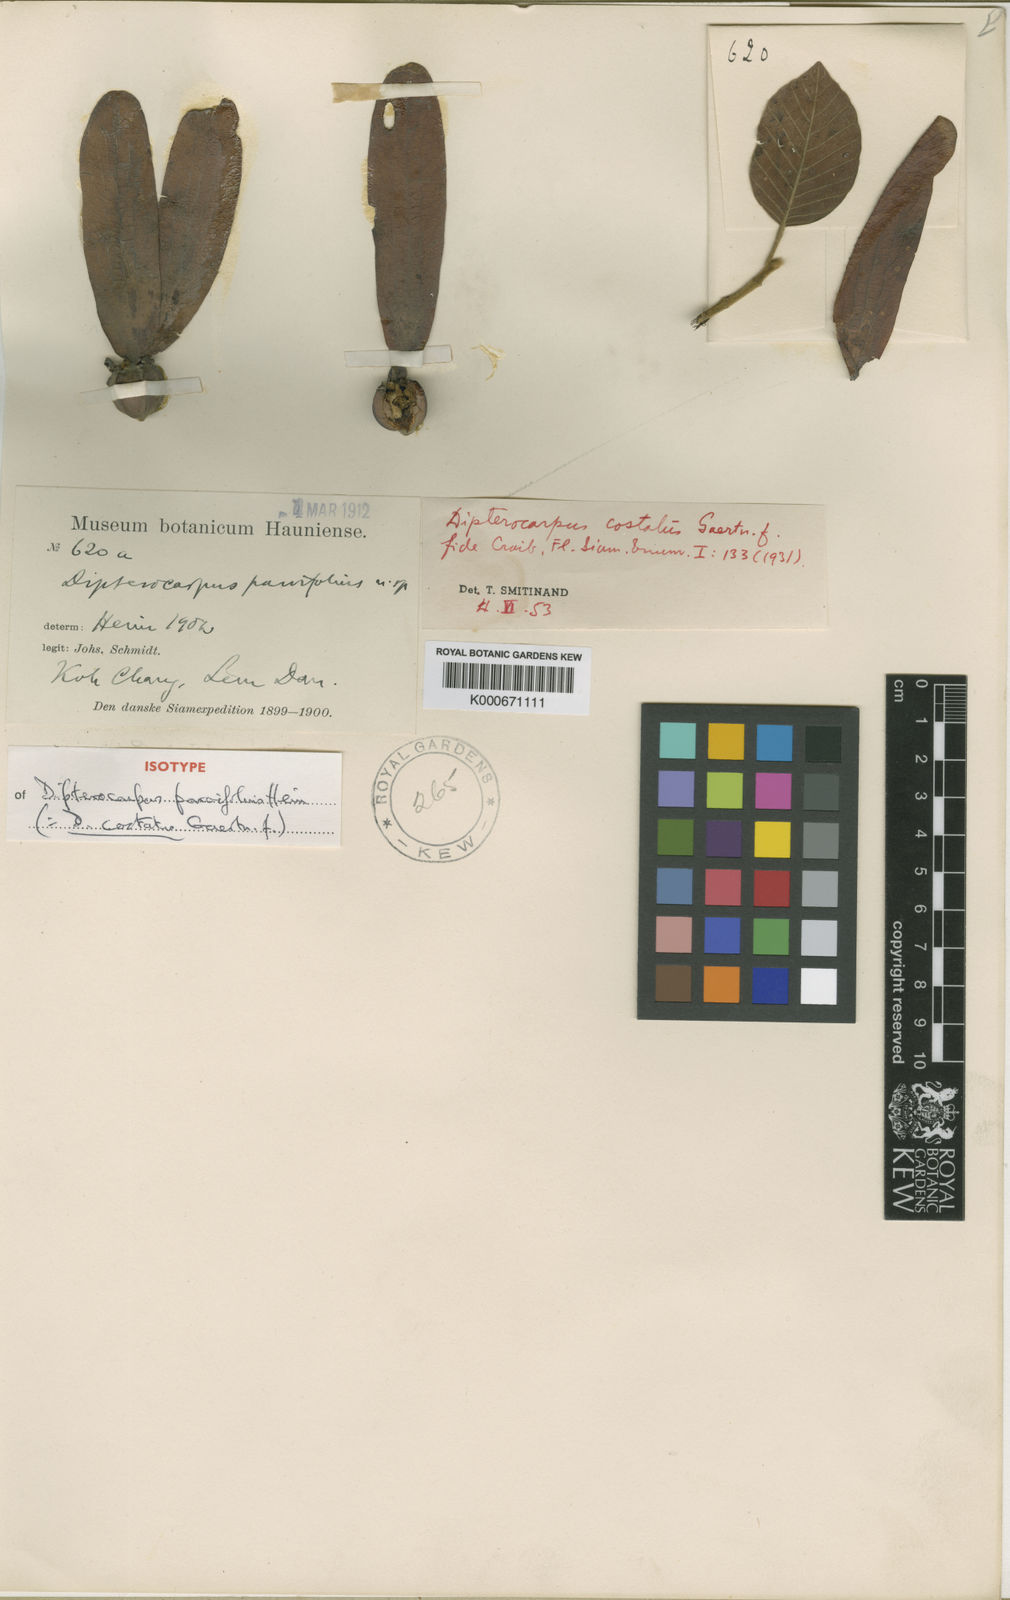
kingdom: Plantae
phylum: Tracheophyta
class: Magnoliopsida
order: Malvales
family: Dipterocarpaceae
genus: Dipterocarpus
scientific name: Dipterocarpus costatus
